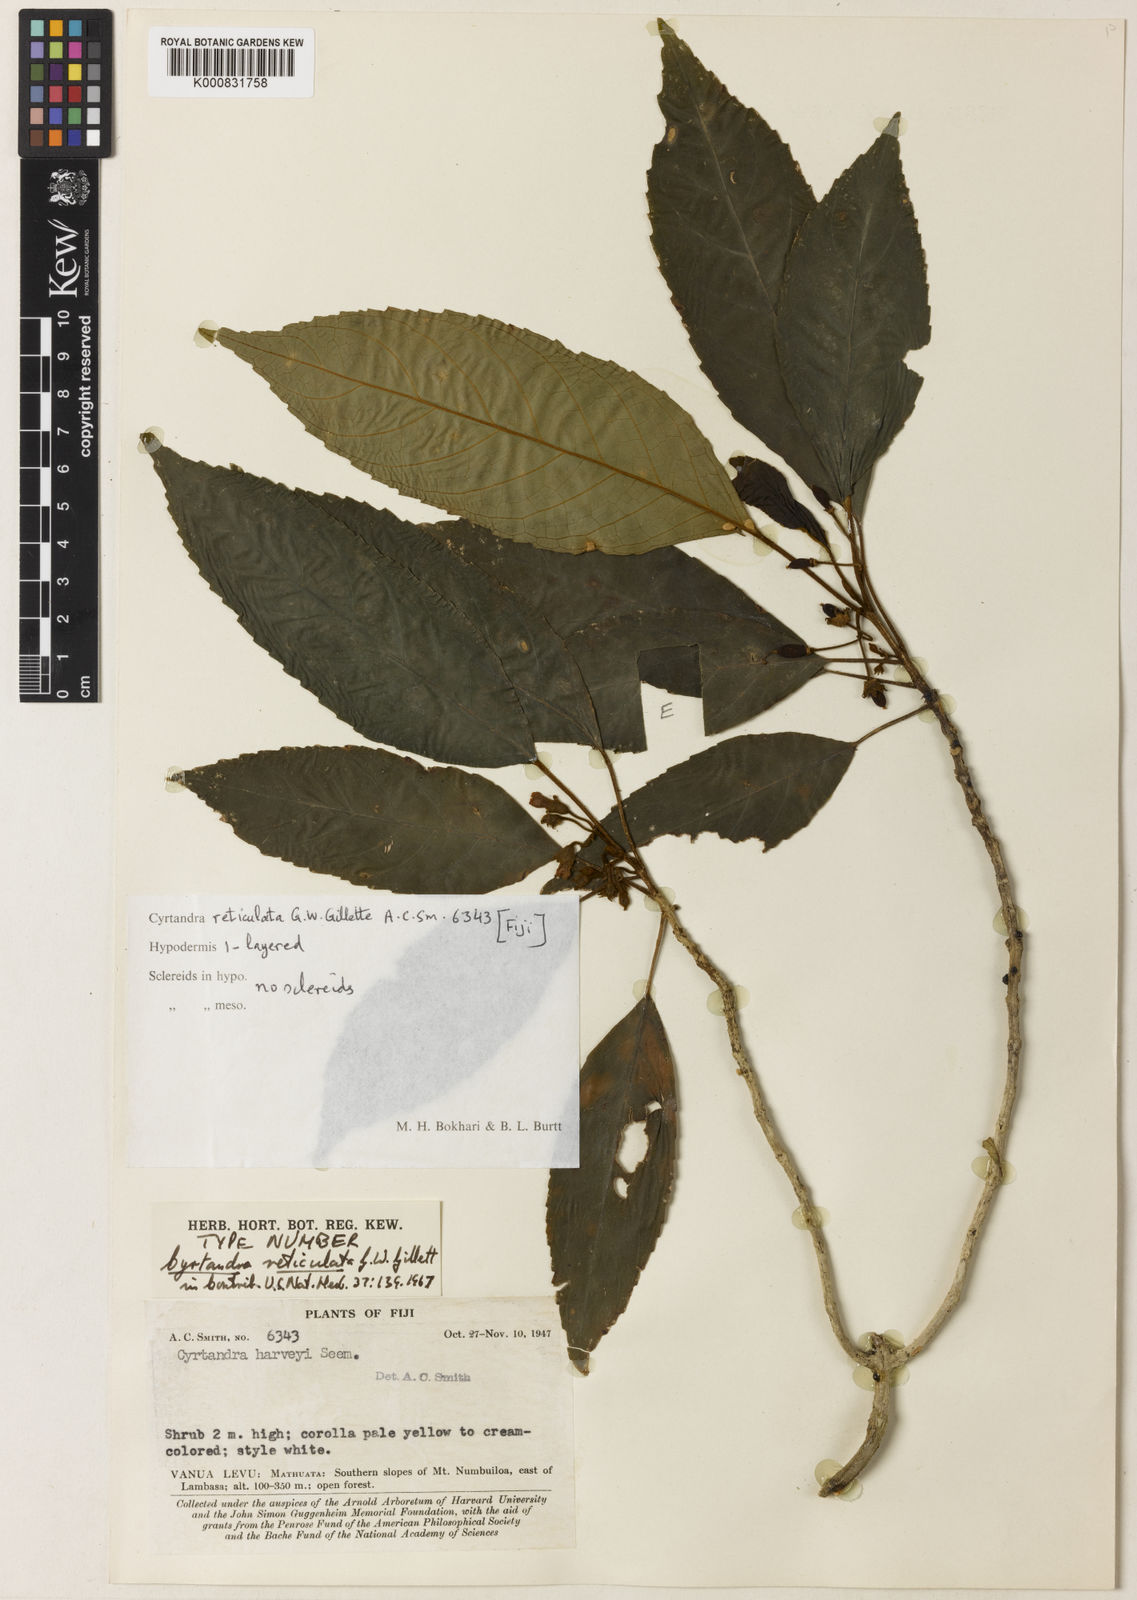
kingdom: Plantae
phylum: Tracheophyta
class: Magnoliopsida
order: Lamiales
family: Gesneriaceae
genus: Cyrtandra
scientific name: Cyrtandra reticulata
